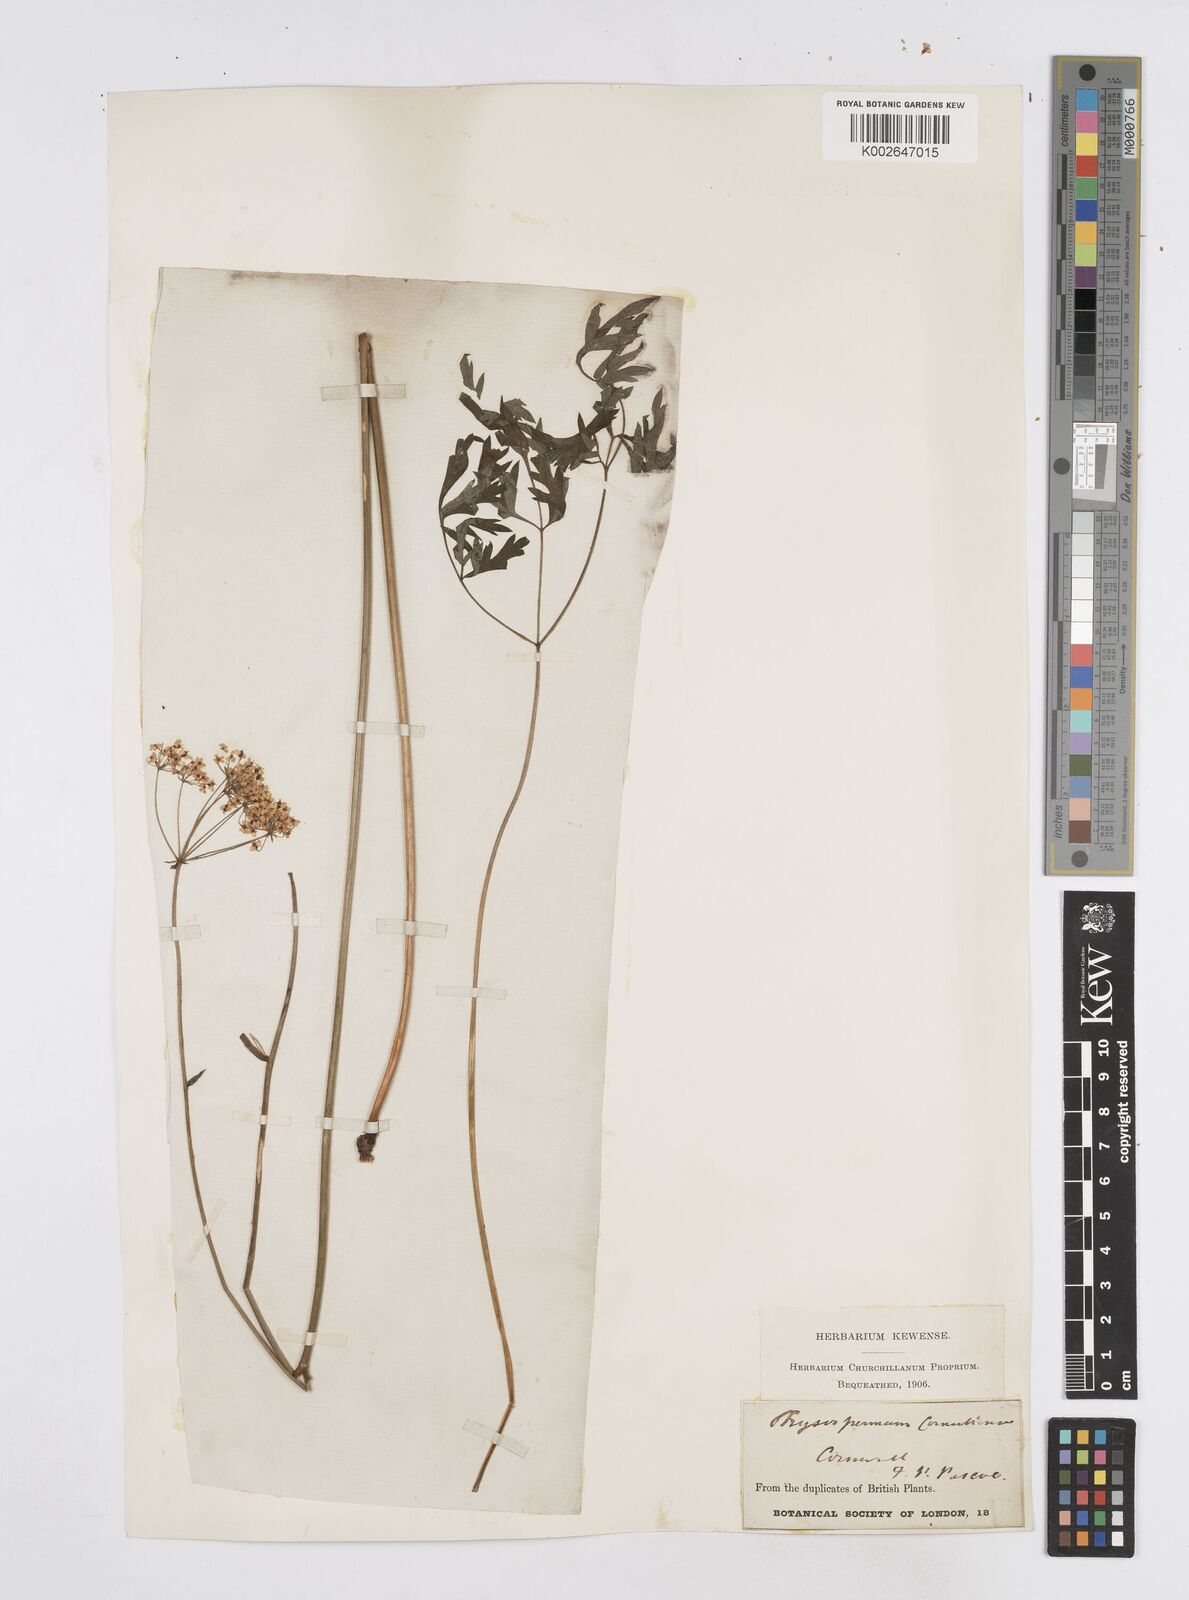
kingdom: Plantae
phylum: Tracheophyta
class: Magnoliopsida
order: Apiales
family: Apiaceae
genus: Physospermum
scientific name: Physospermum cornubiense
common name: Bladderseed
